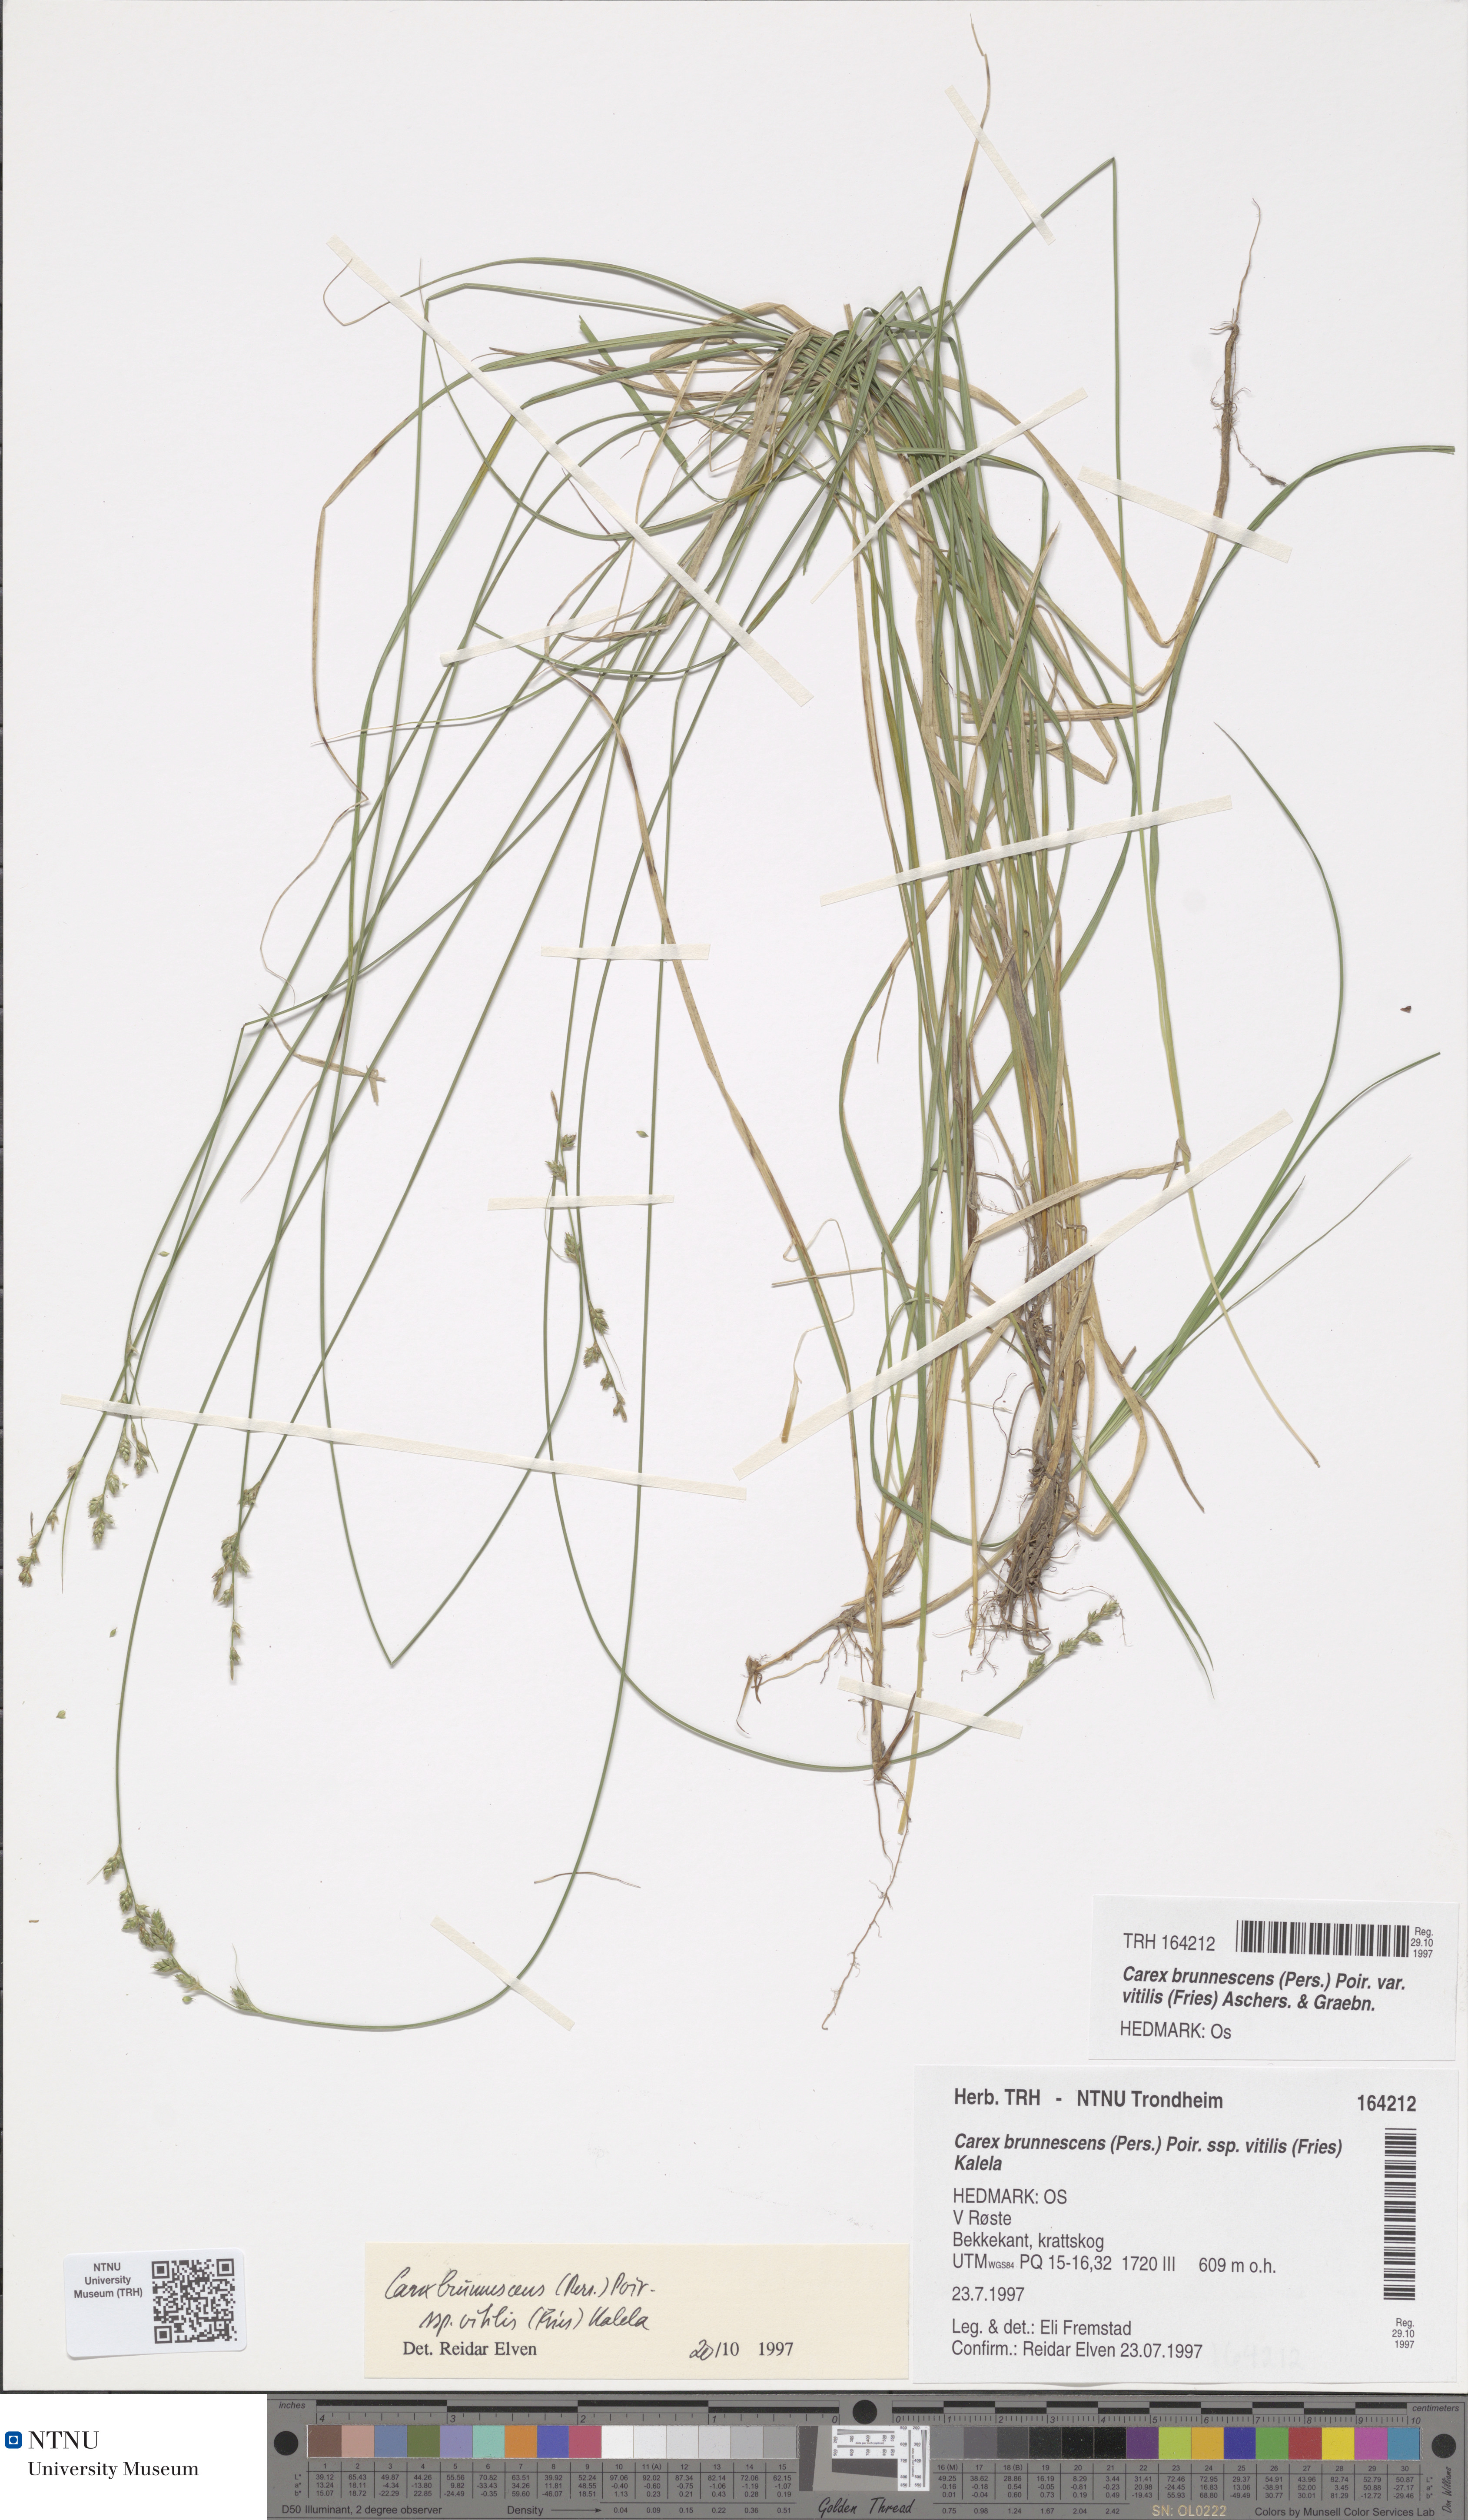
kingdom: Plantae
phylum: Tracheophyta
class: Liliopsida
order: Poales
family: Cyperaceae
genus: Carex
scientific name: Carex brunnescens
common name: Brown sedge
